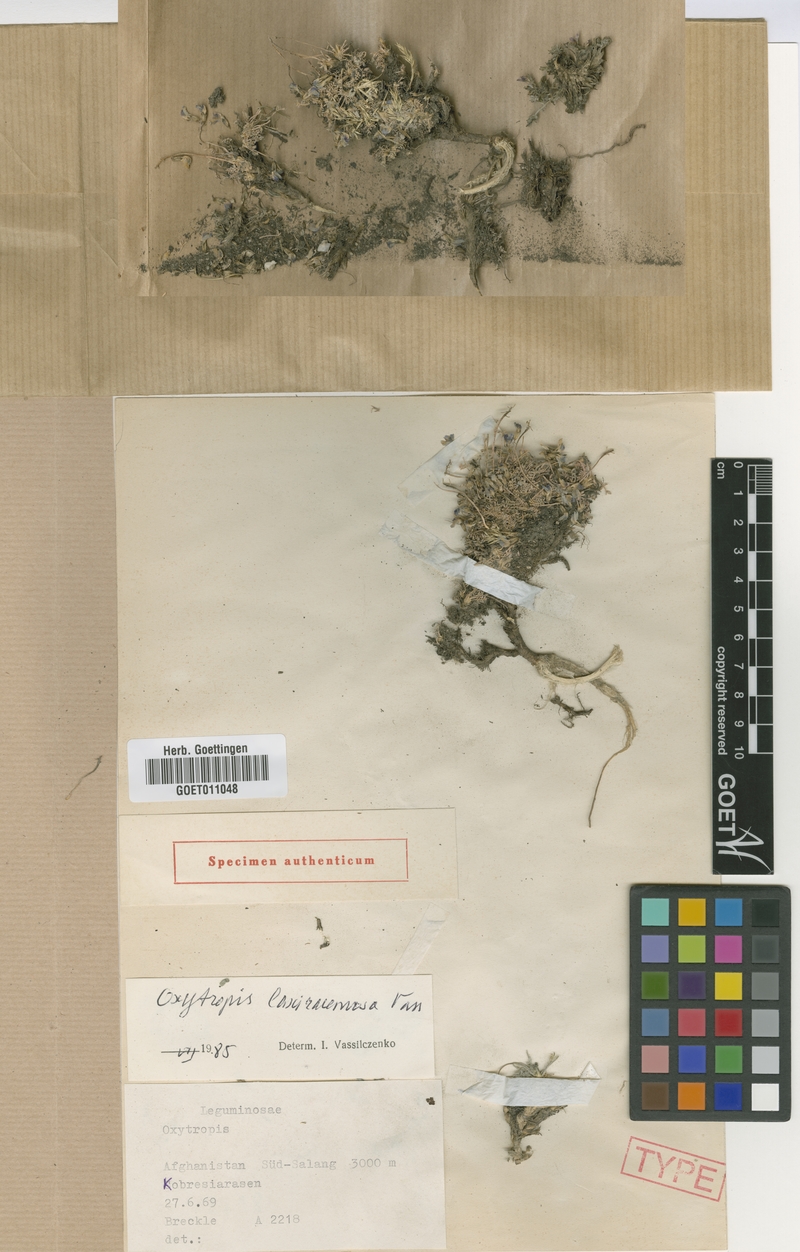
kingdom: Plantae
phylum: Tracheophyta
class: Magnoliopsida
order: Fabales
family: Fabaceae
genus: Oxytropis
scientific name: Oxytropis laxiracemosa
